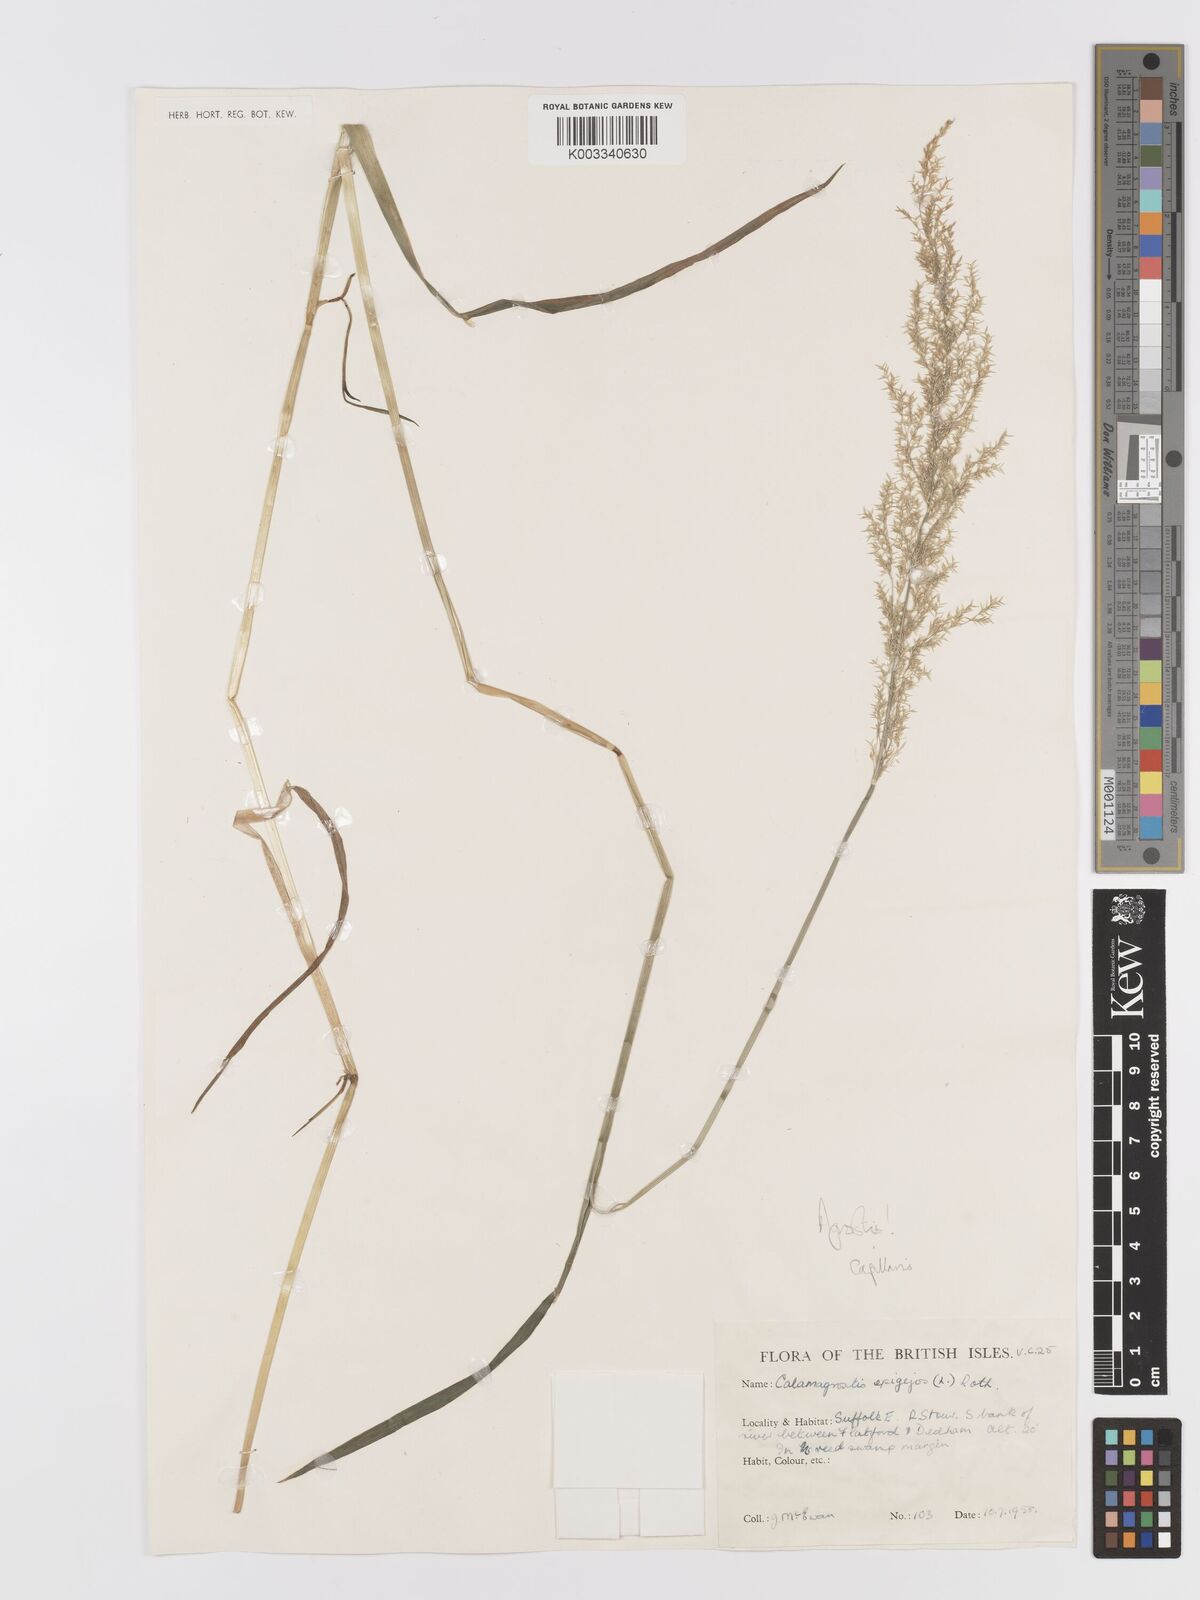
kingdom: Plantae
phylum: Tracheophyta
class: Liliopsida
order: Poales
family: Poaceae
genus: Agrostis
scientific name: Agrostis capillaris
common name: Colonial bentgrass
